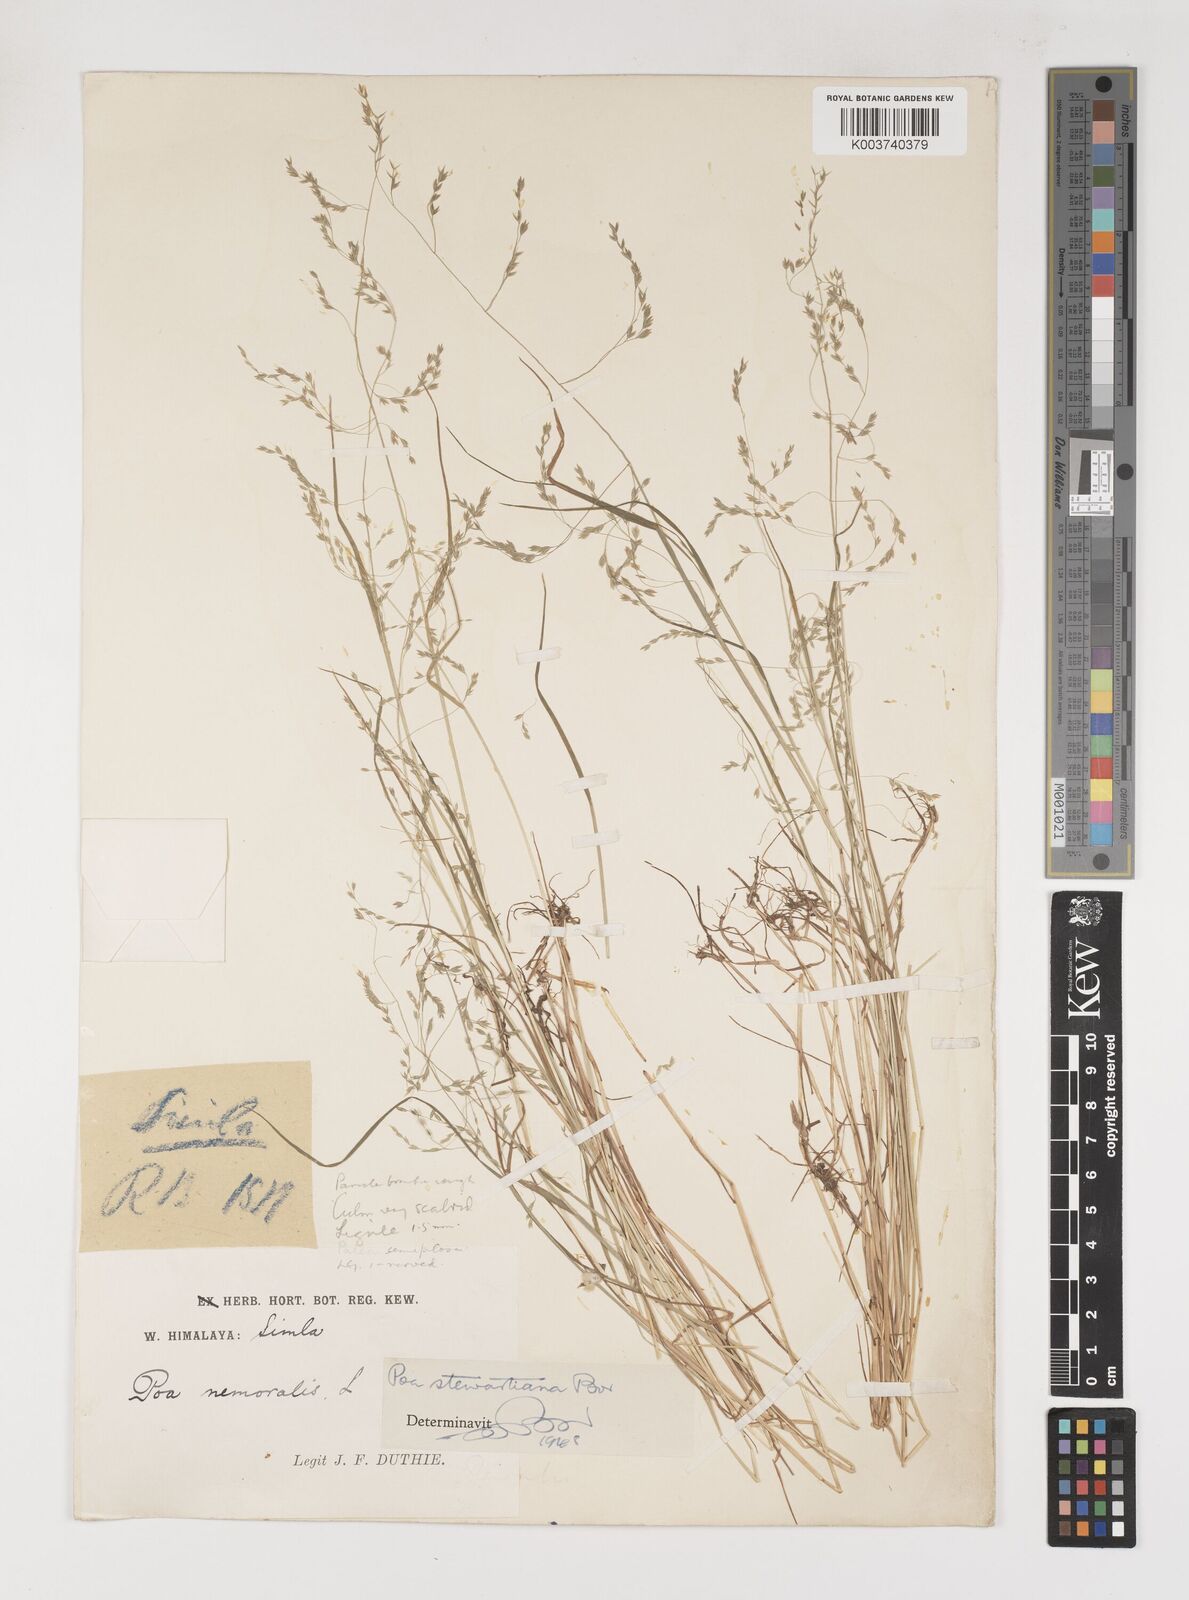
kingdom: Plantae
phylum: Tracheophyta
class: Liliopsida
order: Poales
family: Poaceae
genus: Poa
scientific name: Poa stewartiana
